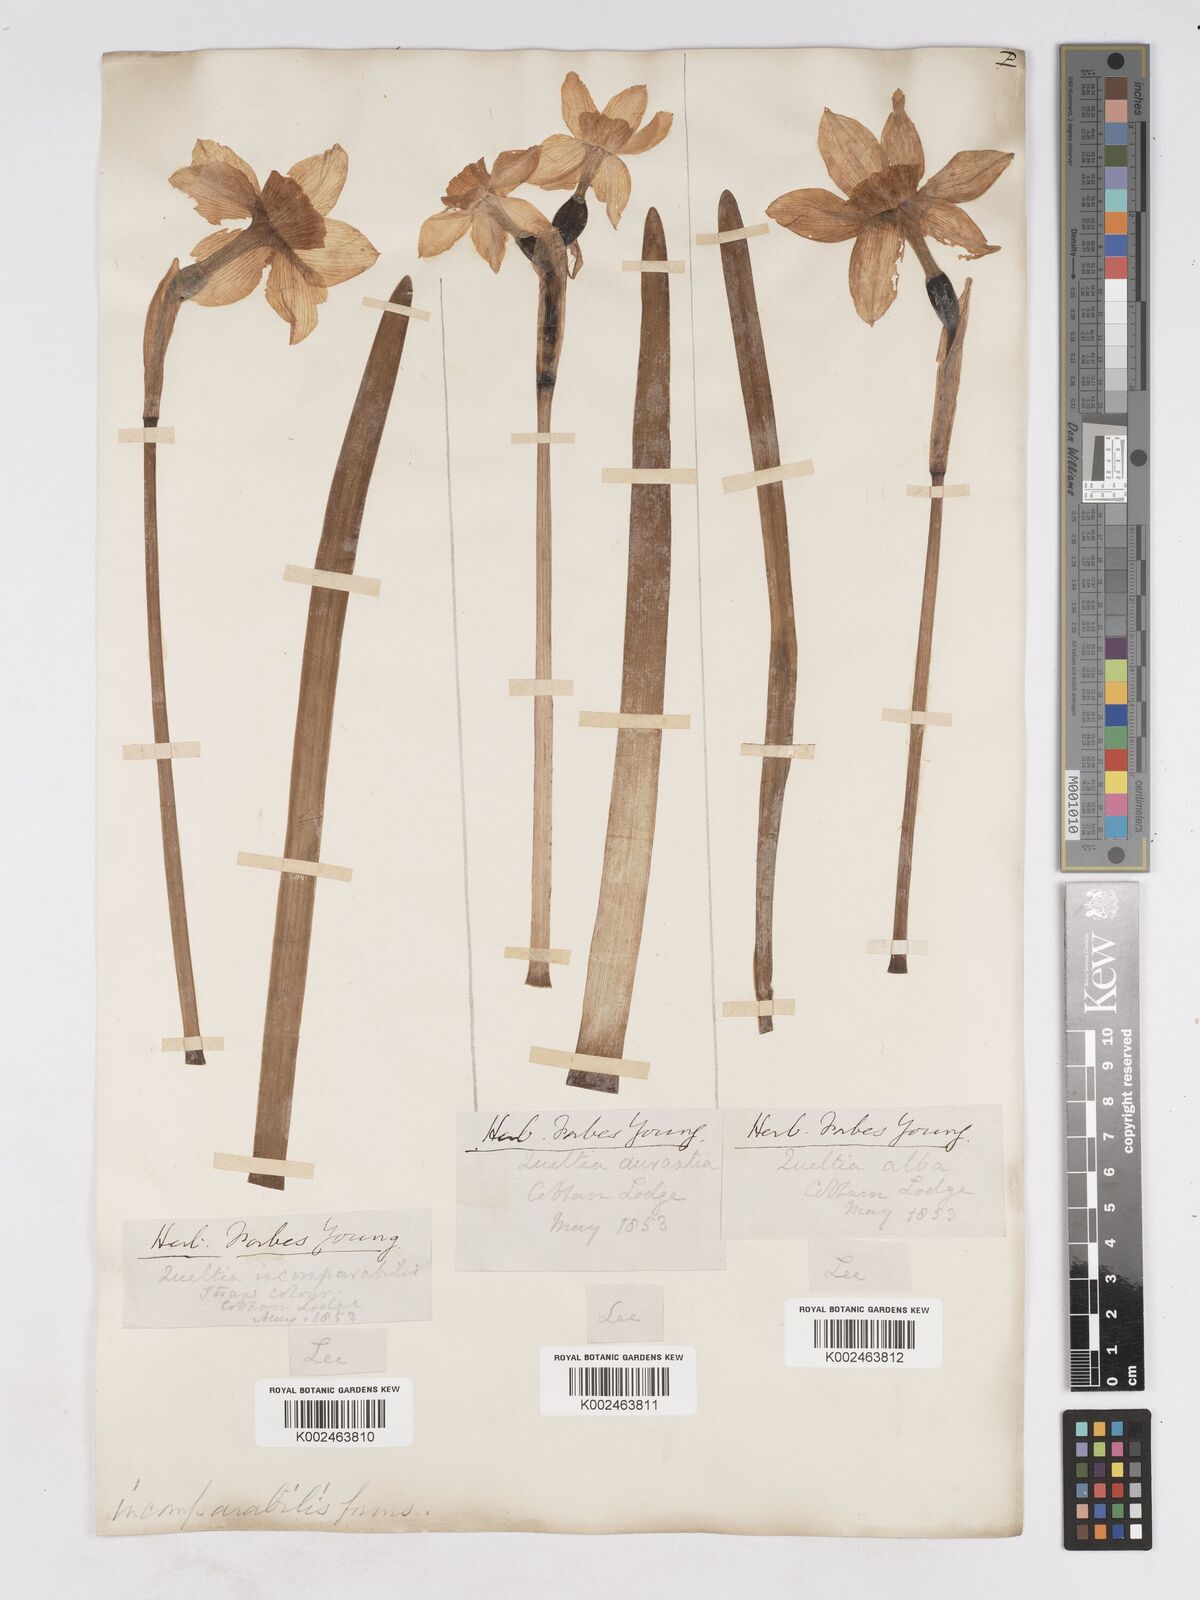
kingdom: Plantae
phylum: Tracheophyta
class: Liliopsida
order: Asparagales
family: Amaryllidaceae
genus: Narcissus
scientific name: Narcissus incomparabilis
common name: Nonesuch daffodil
